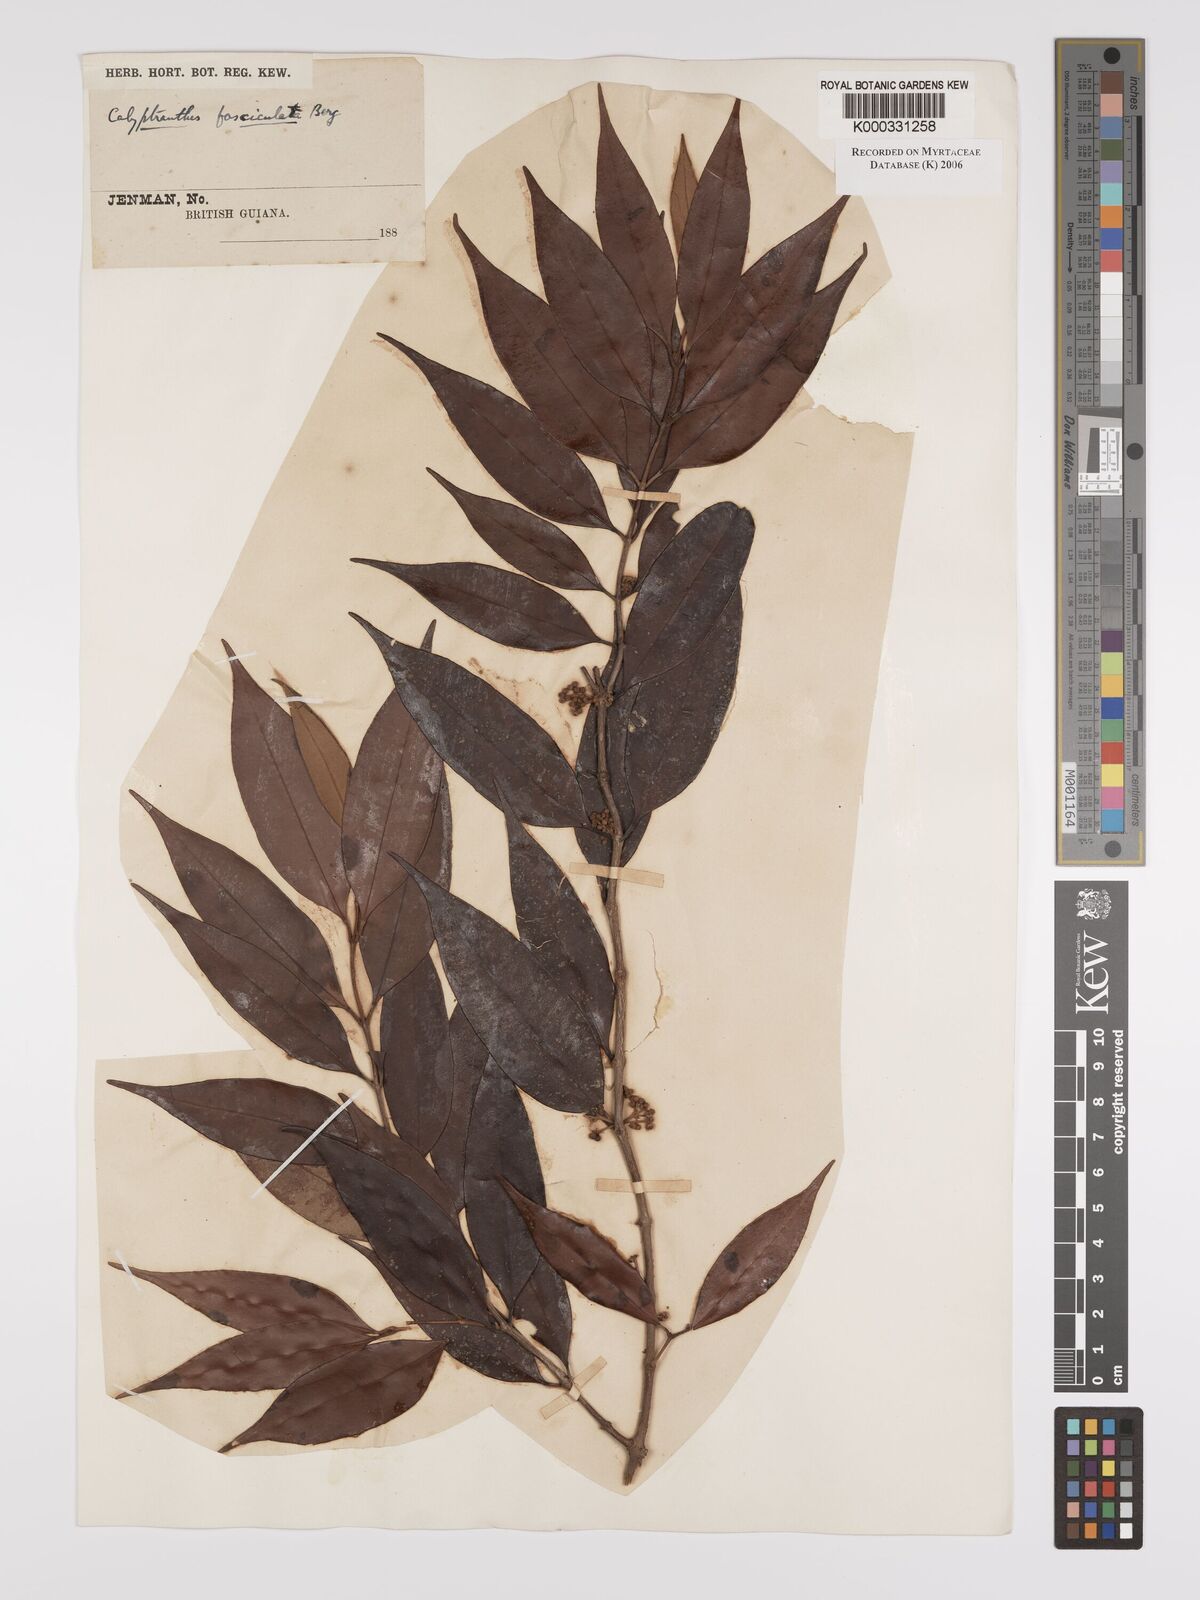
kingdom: Plantae
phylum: Tracheophyta
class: Magnoliopsida
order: Myrtales
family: Myrtaceae
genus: Myrcia
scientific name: Myrcia fasciculata
